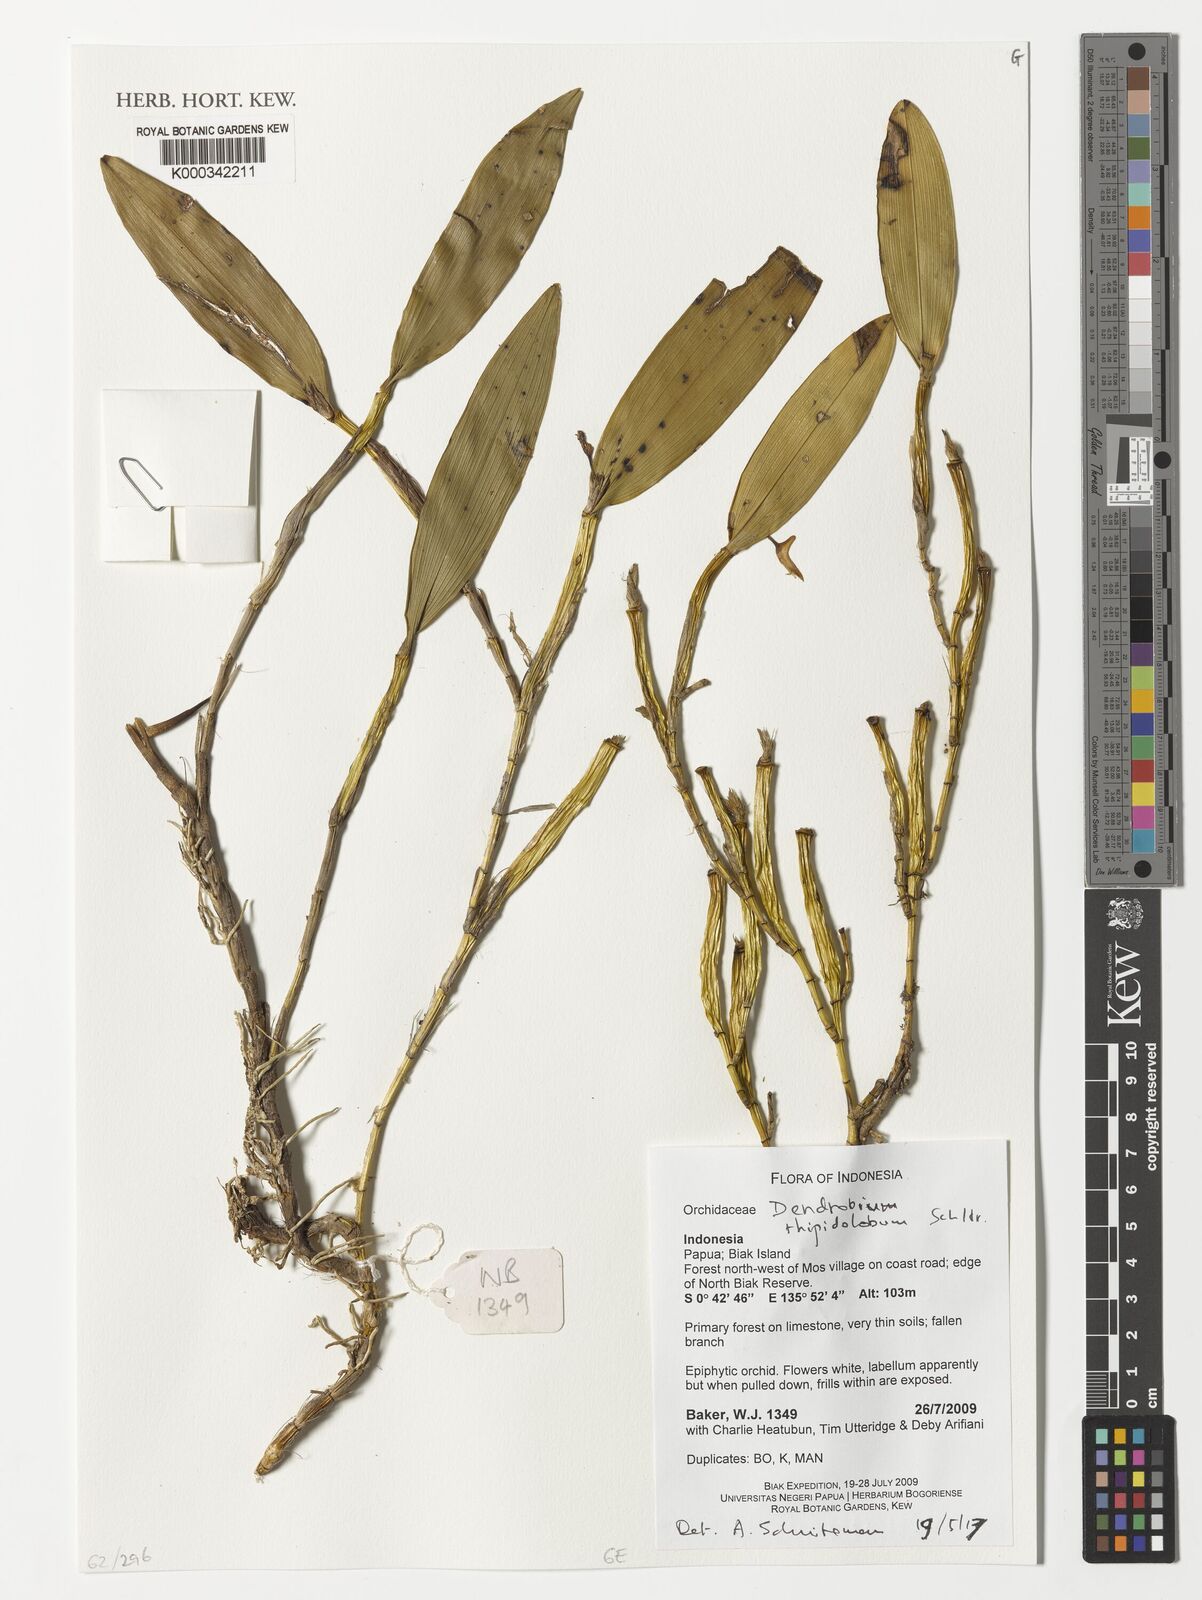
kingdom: Plantae
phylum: Tracheophyta
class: Liliopsida
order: Asparagales
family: Orchidaceae
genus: Dendrobium
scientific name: Dendrobium rhipidolobum
